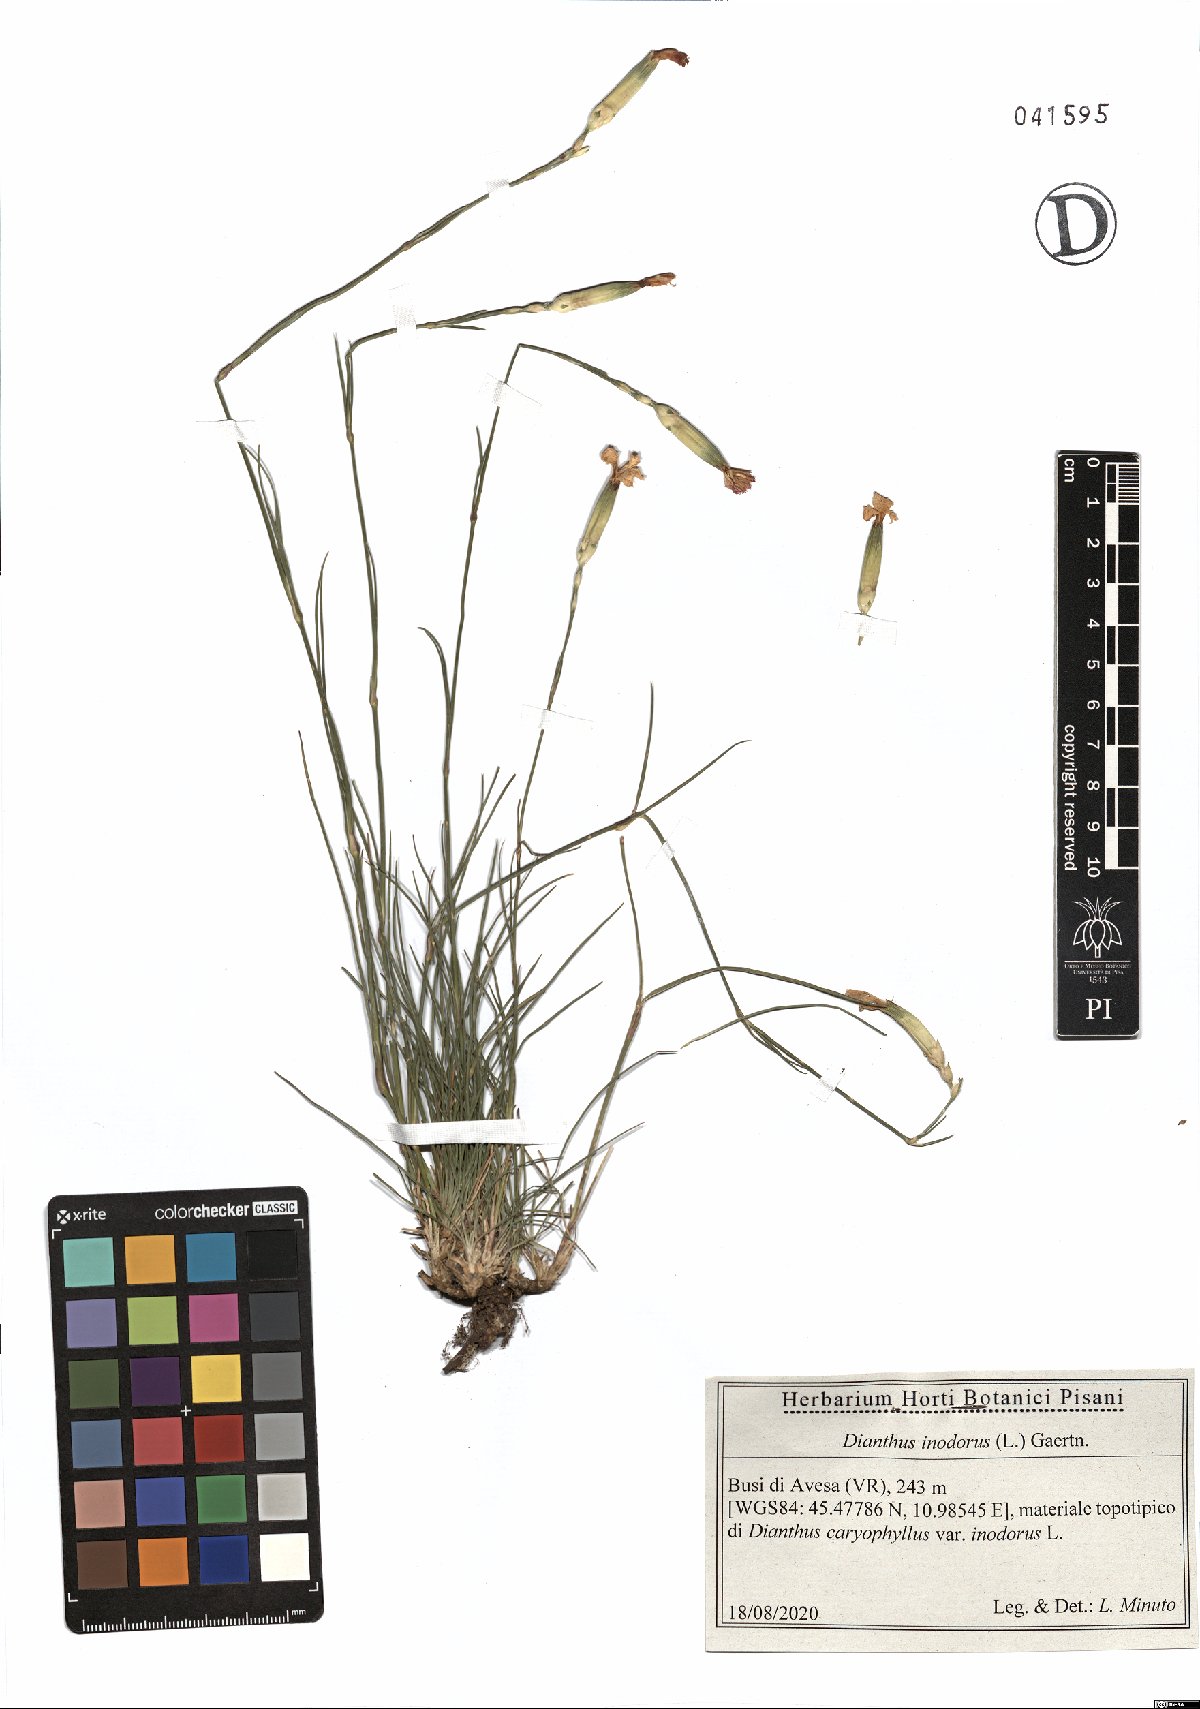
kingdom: Plantae
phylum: Tracheophyta
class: Magnoliopsida
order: Caryophyllales
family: Caryophyllaceae
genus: Dianthus
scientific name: Dianthus sylvestris
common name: Wood pink
